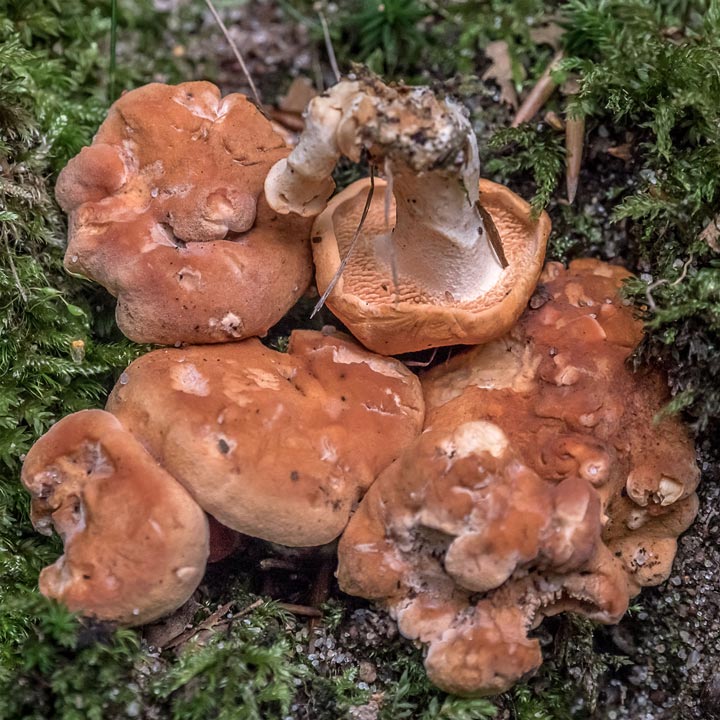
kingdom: Fungi
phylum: Basidiomycota
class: Agaricomycetes
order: Cantharellales
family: Hydnaceae
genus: Hydnum
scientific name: Hydnum rufescens
